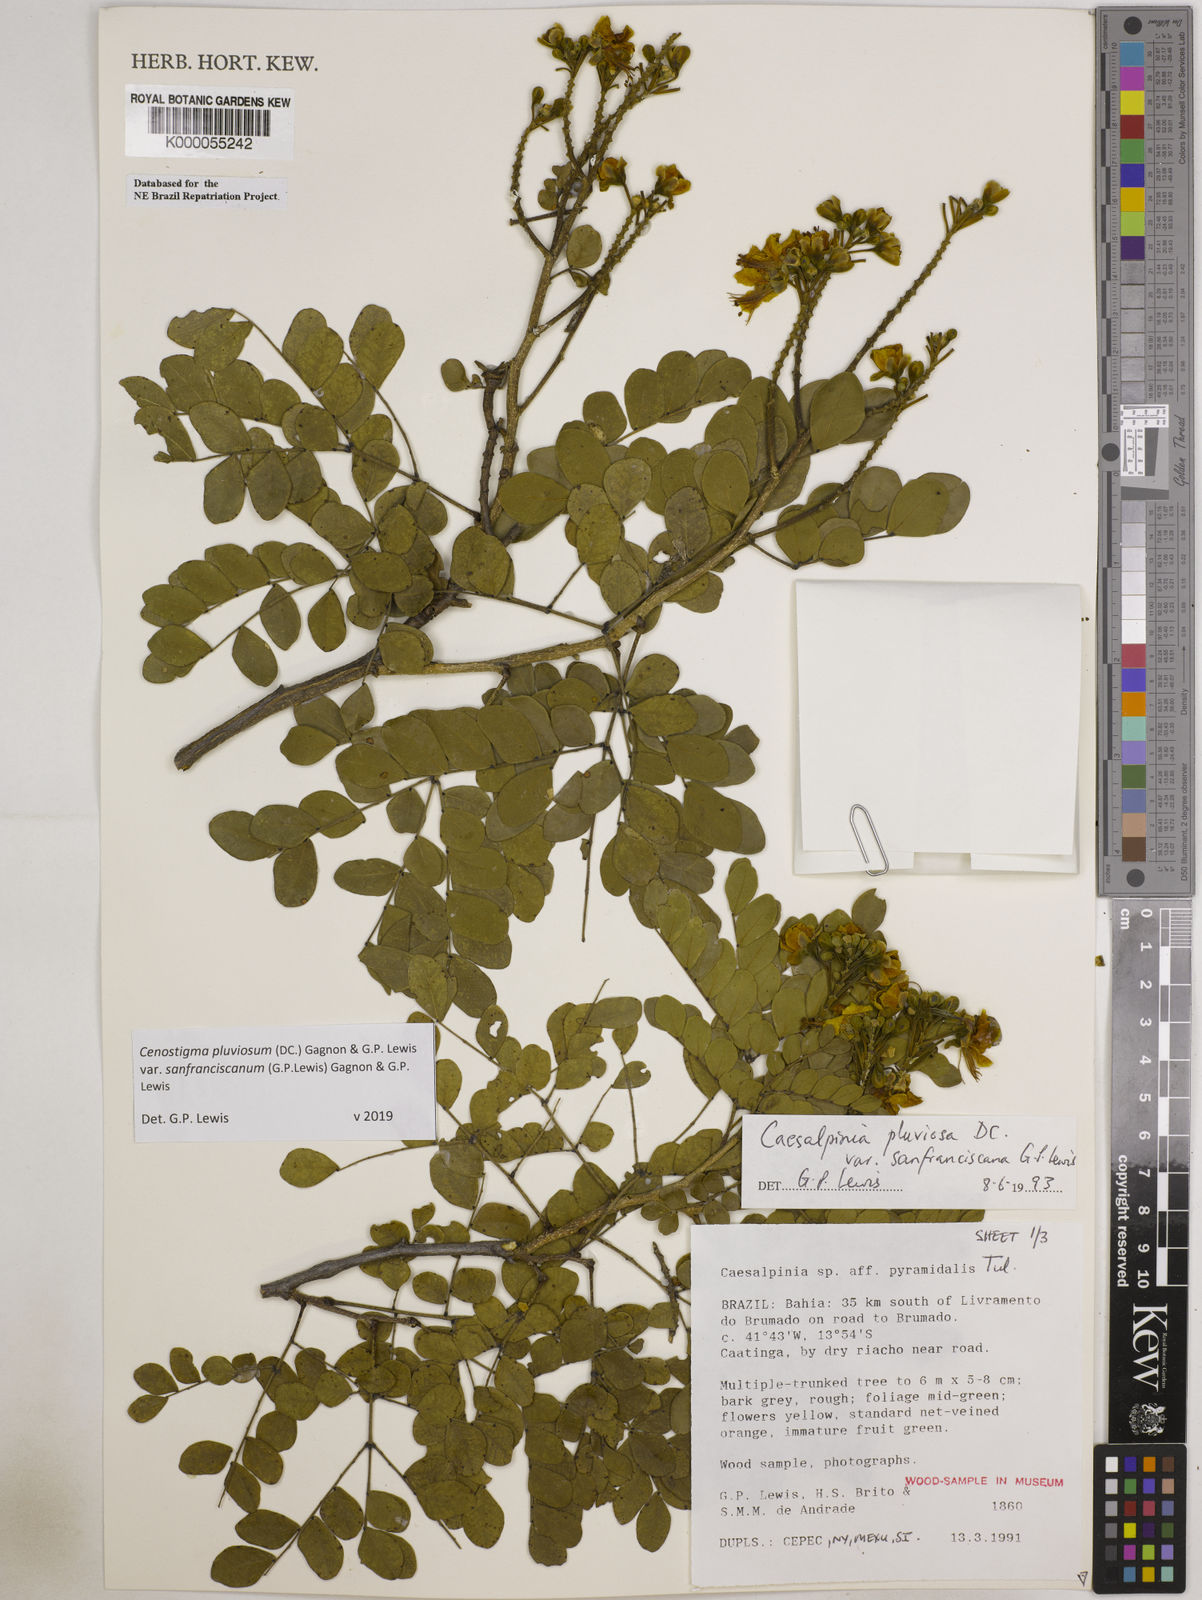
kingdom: Plantae
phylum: Tracheophyta
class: Magnoliopsida
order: Fabales
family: Fabaceae
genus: Cenostigma
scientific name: Cenostigma pluviosum
